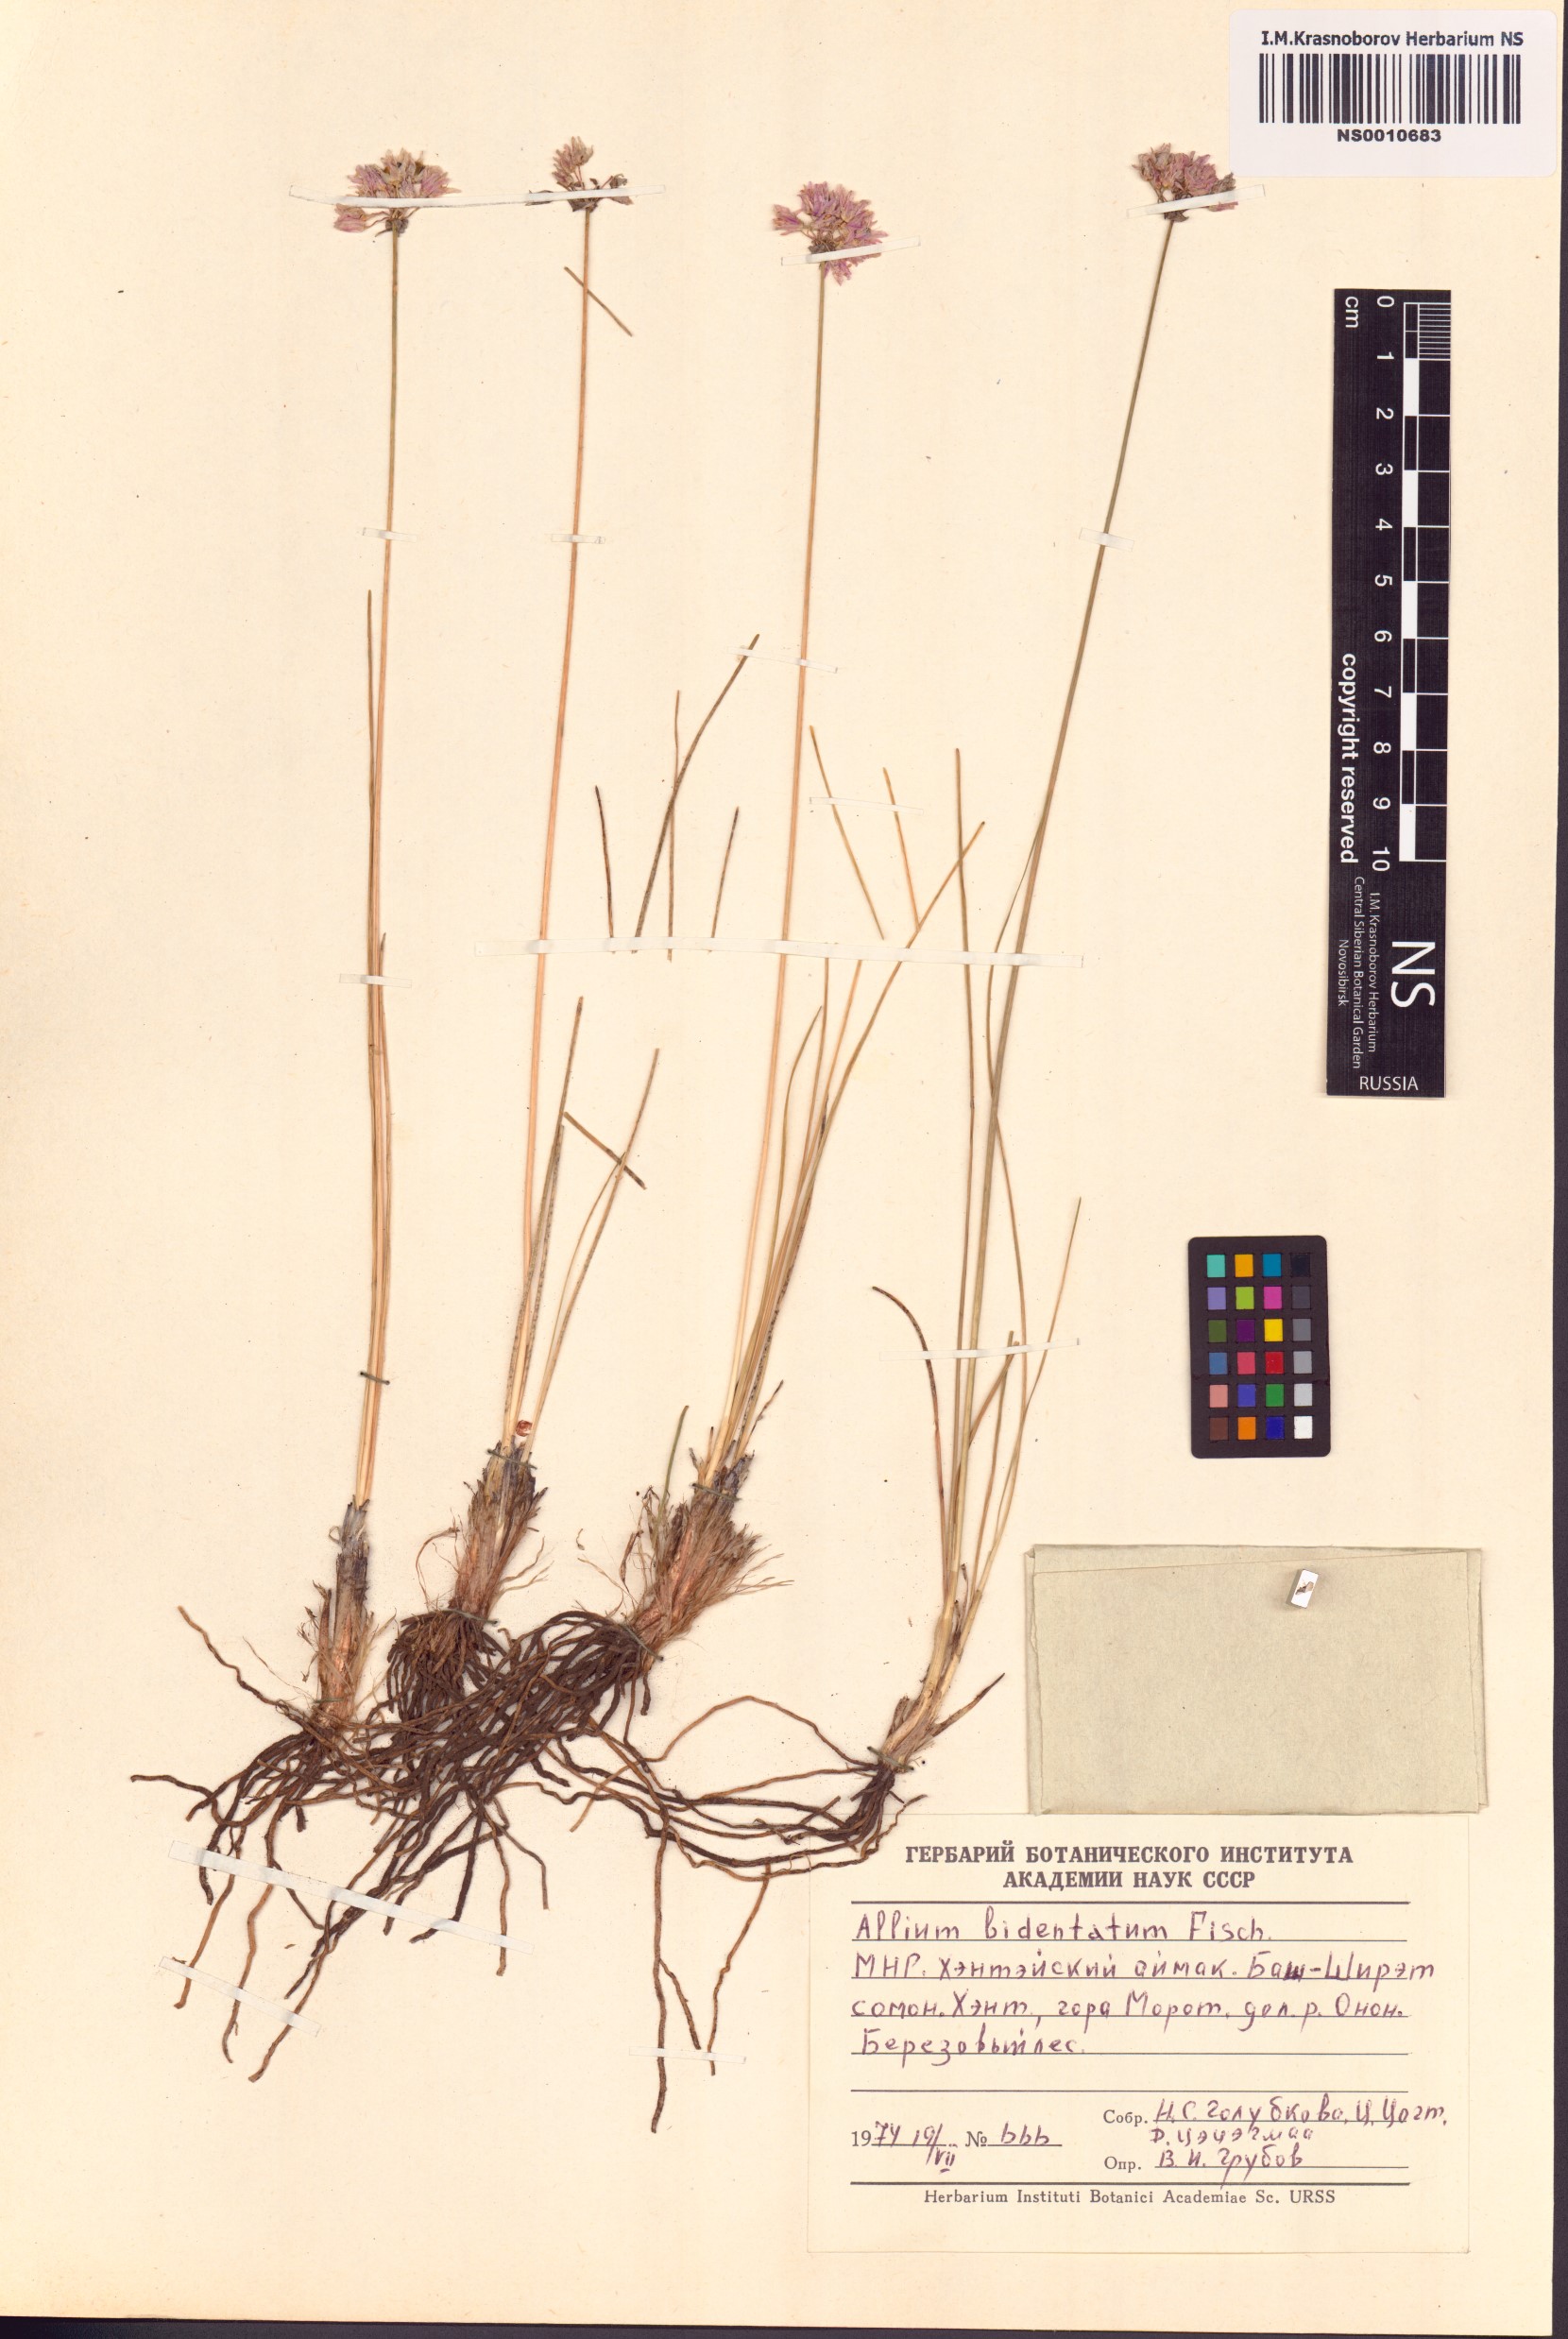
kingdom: Plantae
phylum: Tracheophyta
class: Liliopsida
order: Asparagales
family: Amaryllidaceae
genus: Allium
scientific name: Allium bidentatum
